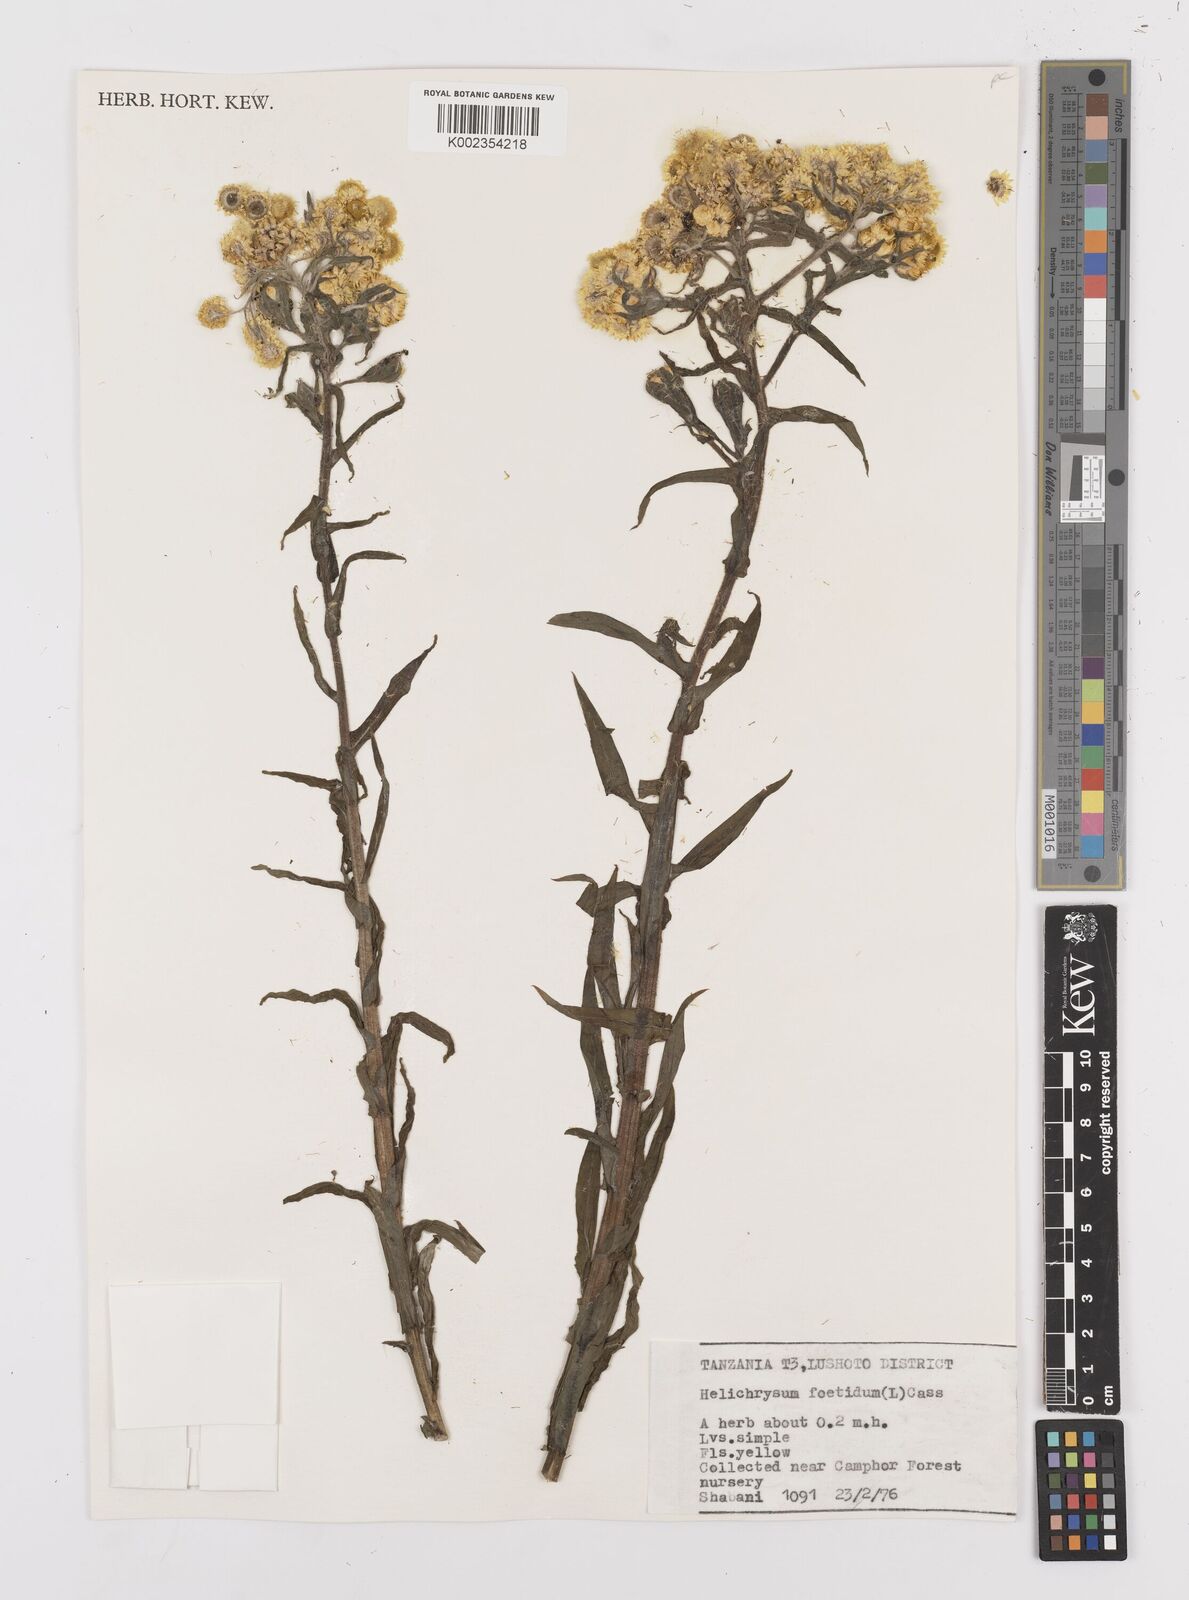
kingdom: Plantae
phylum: Tracheophyta
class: Magnoliopsida
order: Asterales
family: Asteraceae
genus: Helichrysum
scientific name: Helichrysum
